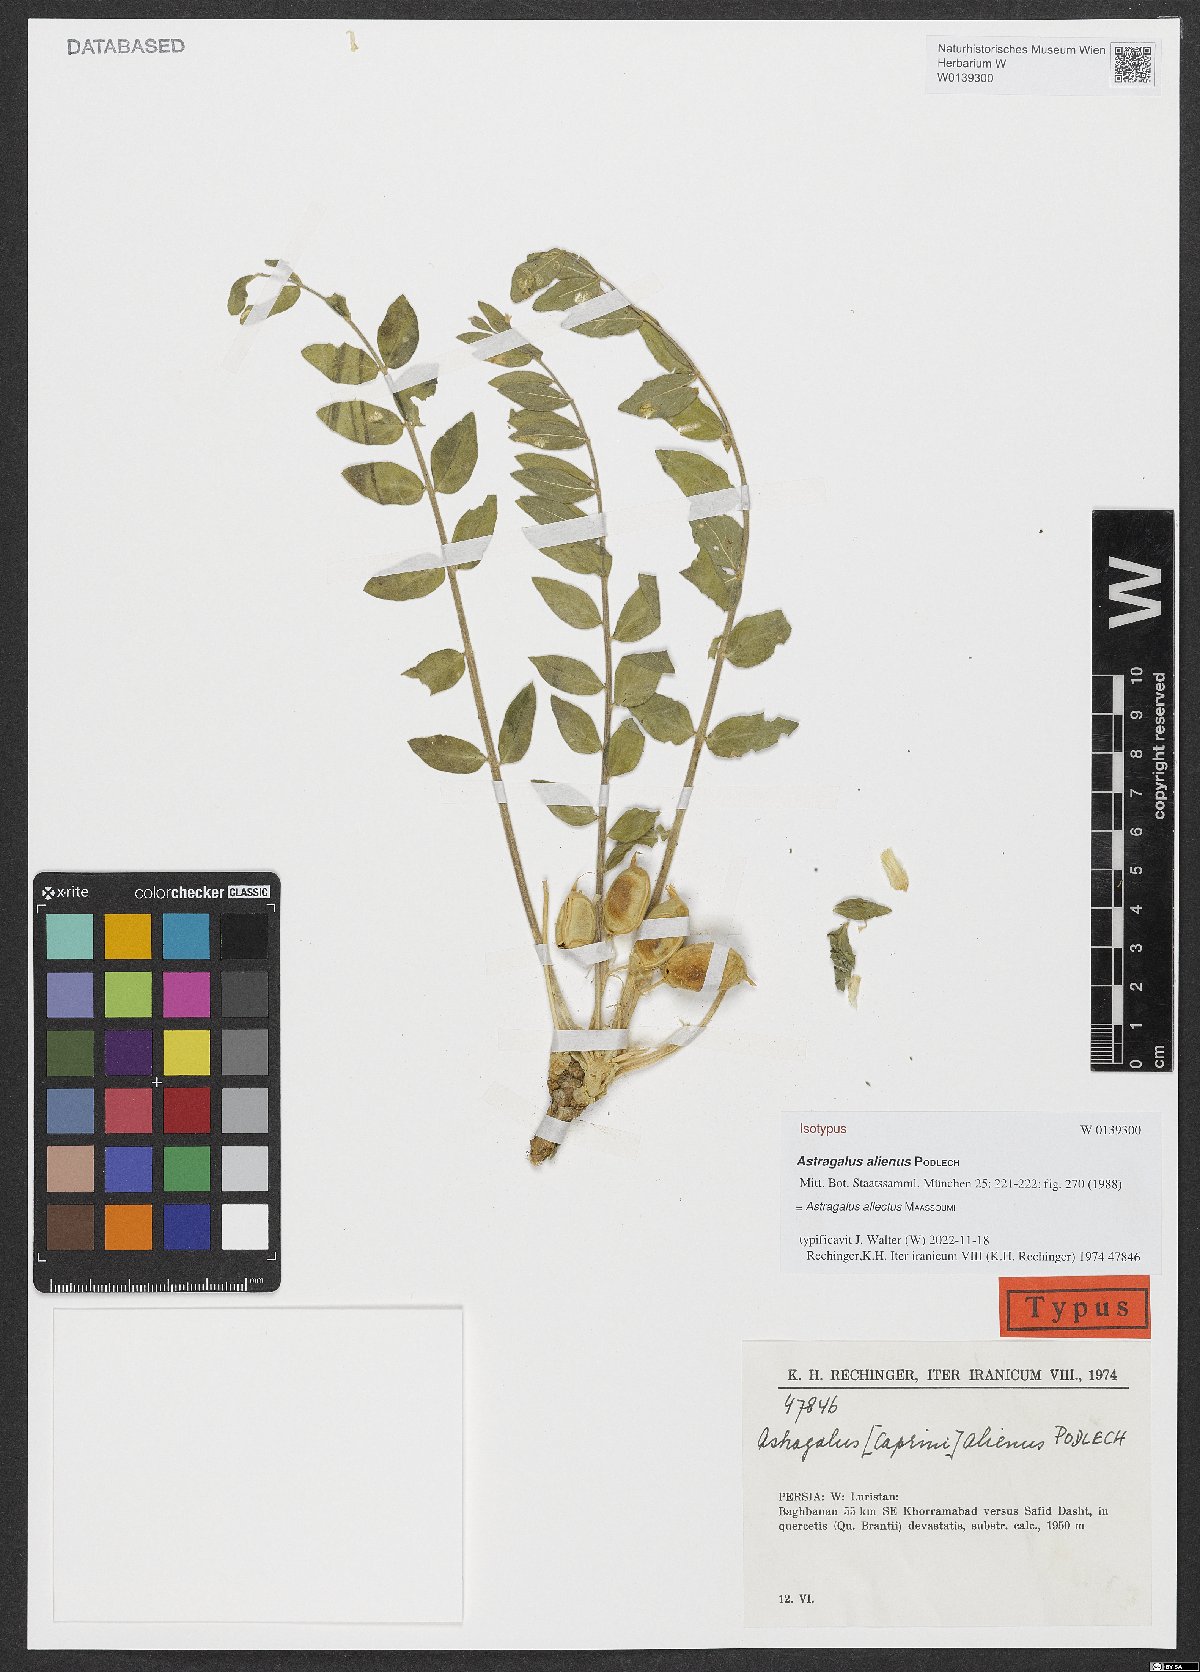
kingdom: Plantae
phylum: Tracheophyta
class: Magnoliopsida
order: Fabales
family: Fabaceae
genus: Astragalus
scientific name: Astragalus allectus
